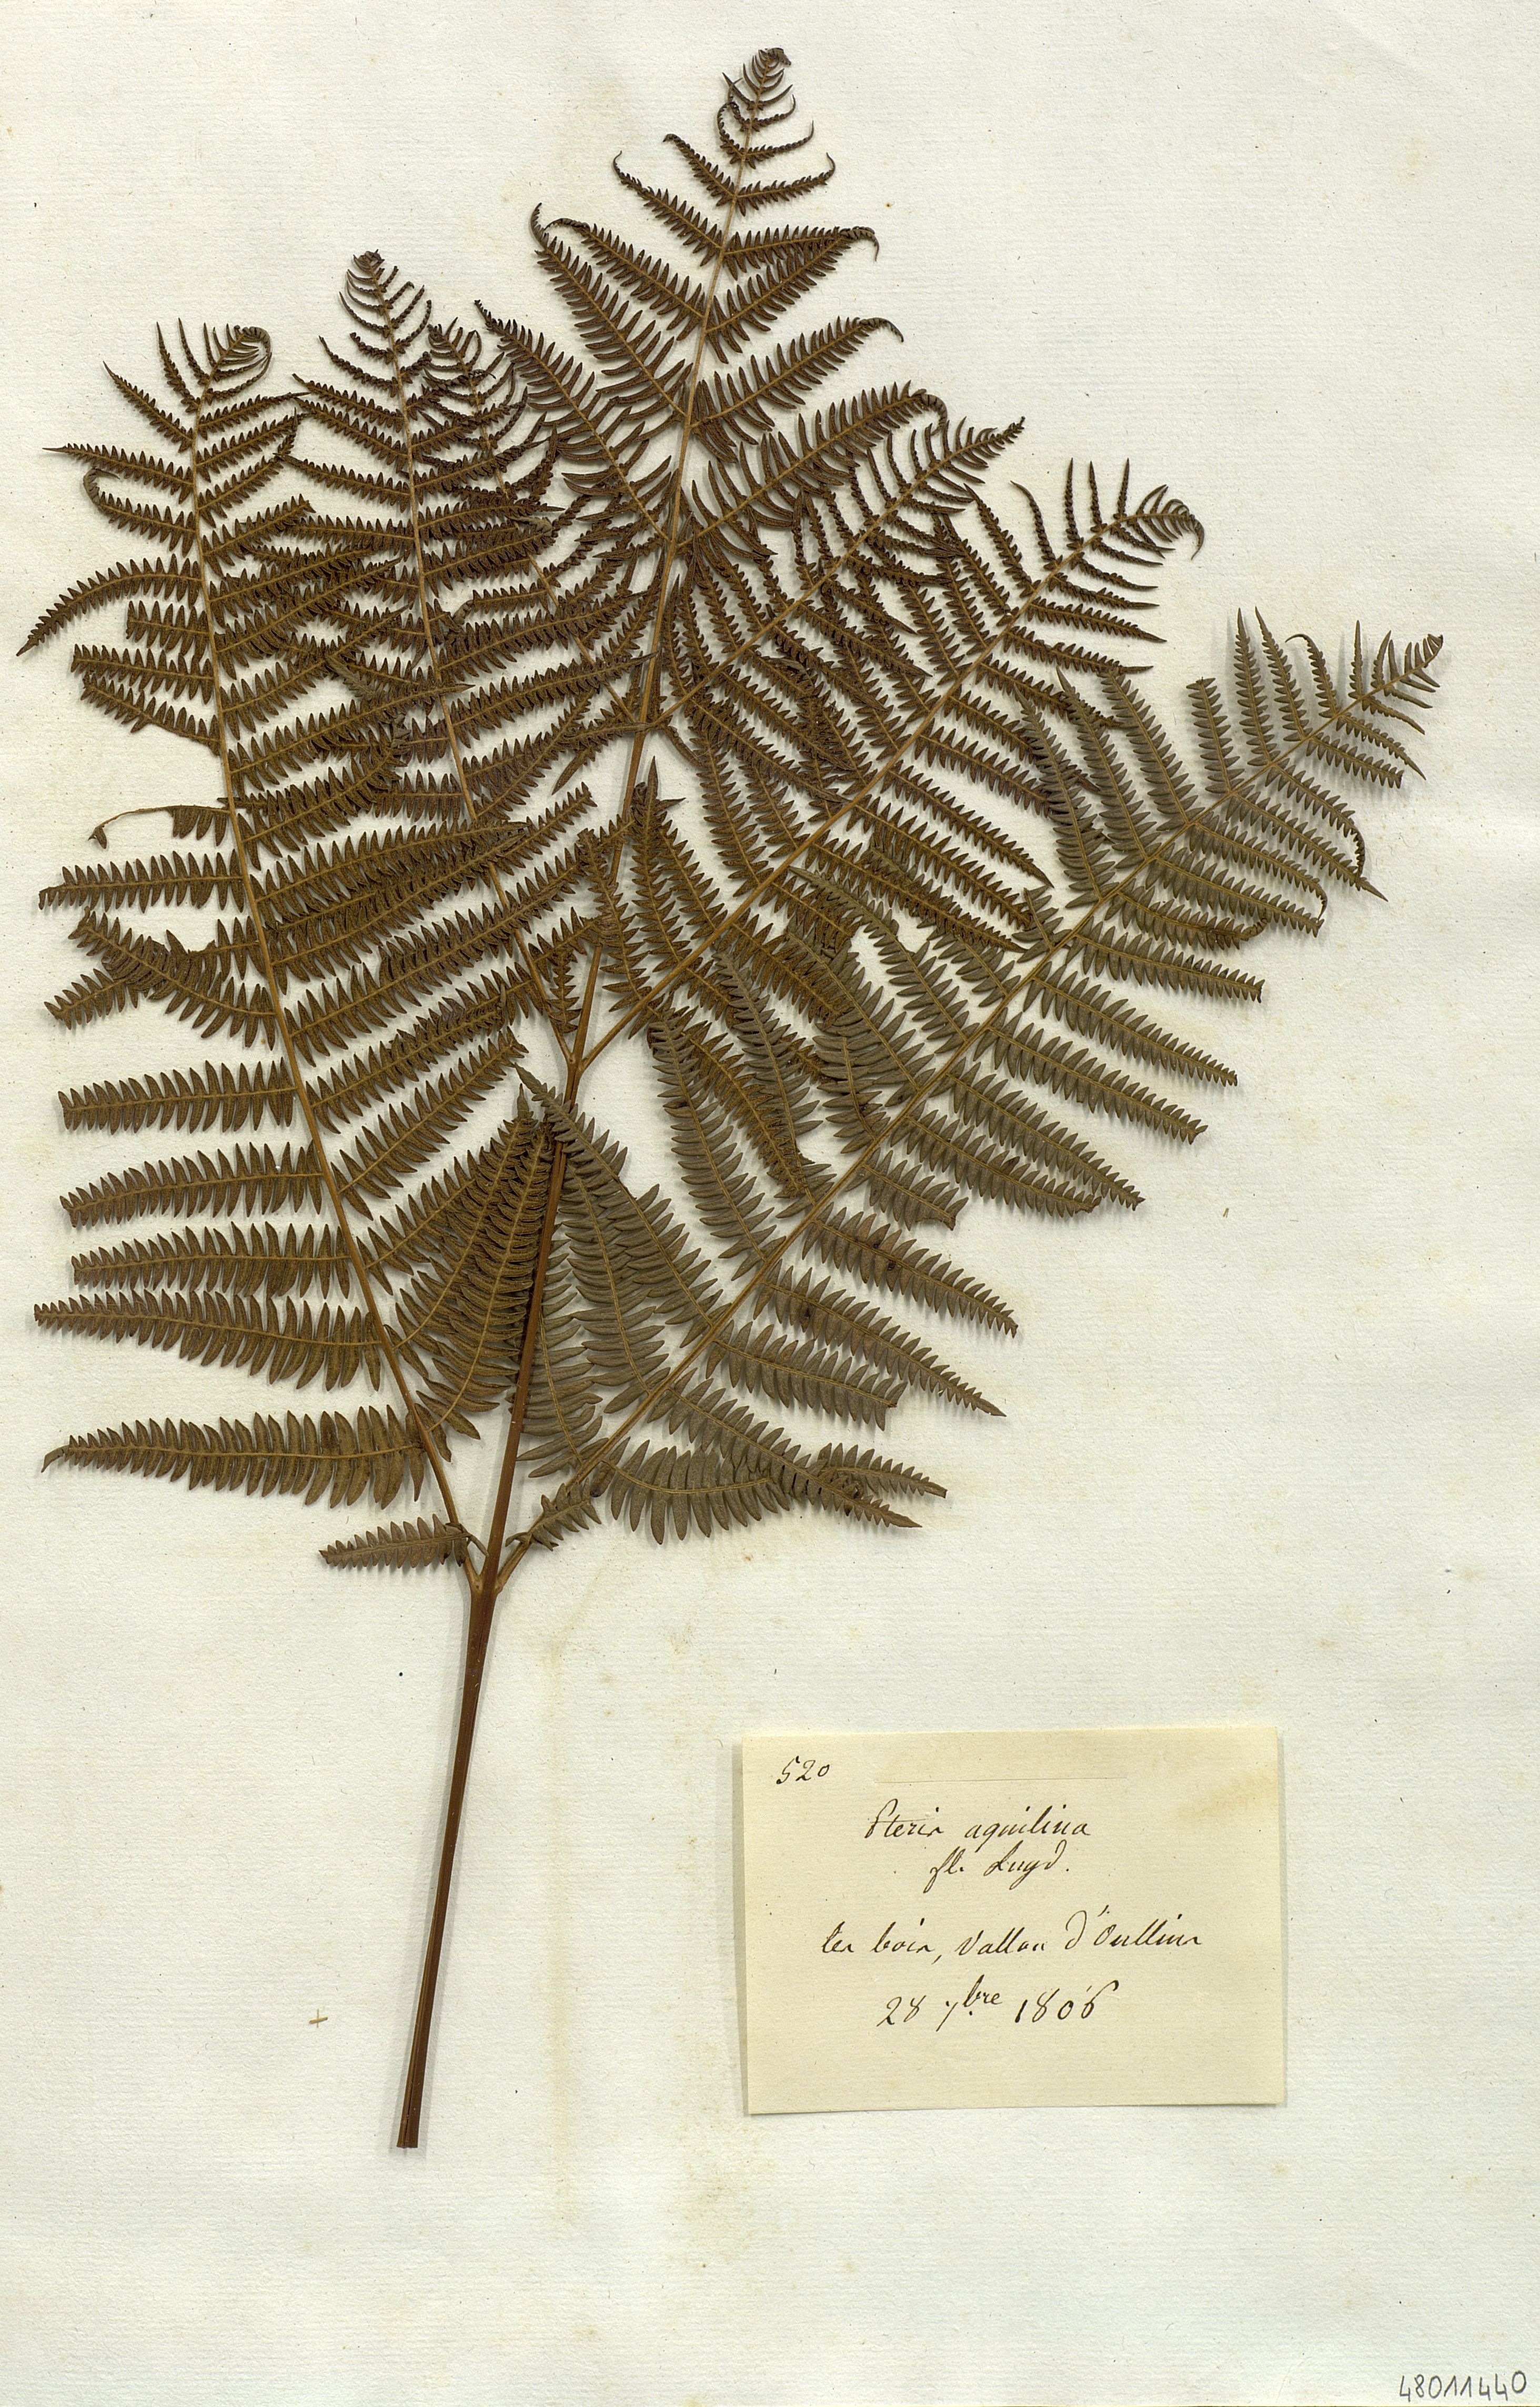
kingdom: Plantae
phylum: Tracheophyta
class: Polypodiopsida
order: Polypodiales
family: Dennstaedtiaceae
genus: Pteridium
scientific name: Pteridium aquilinum
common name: Bracken
